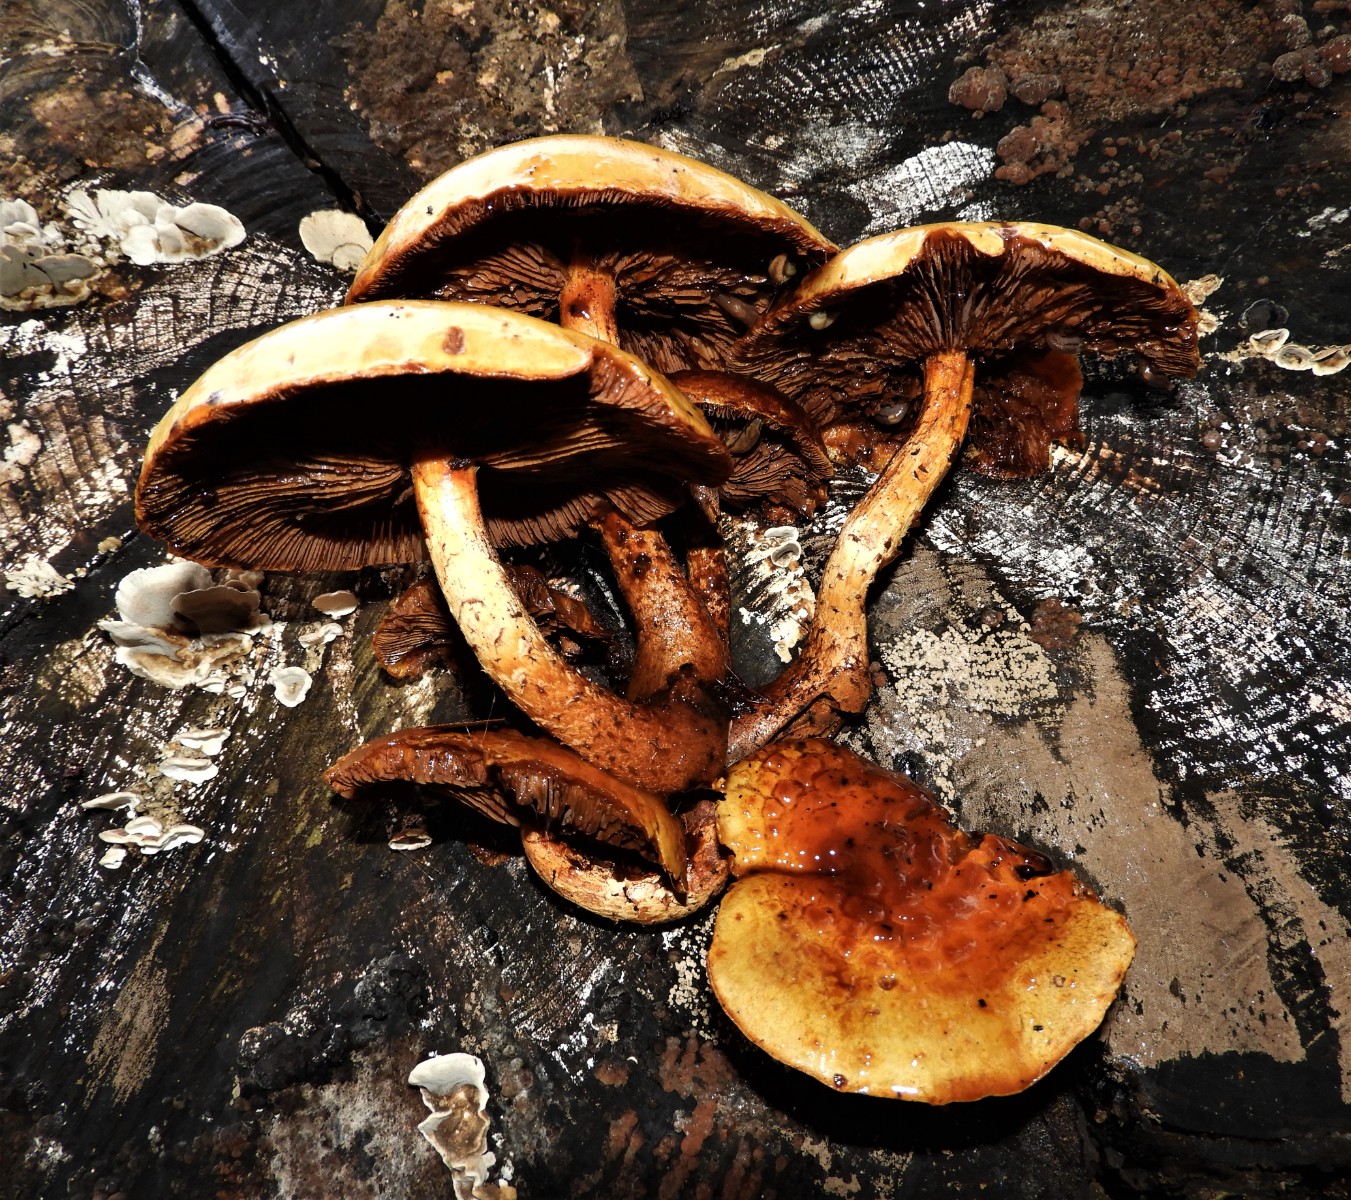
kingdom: Fungi
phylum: Basidiomycota
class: Agaricomycetes
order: Agaricales
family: Strophariaceae
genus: Pholiota
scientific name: Pholiota adiposa
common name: højtsiddende skælhat
